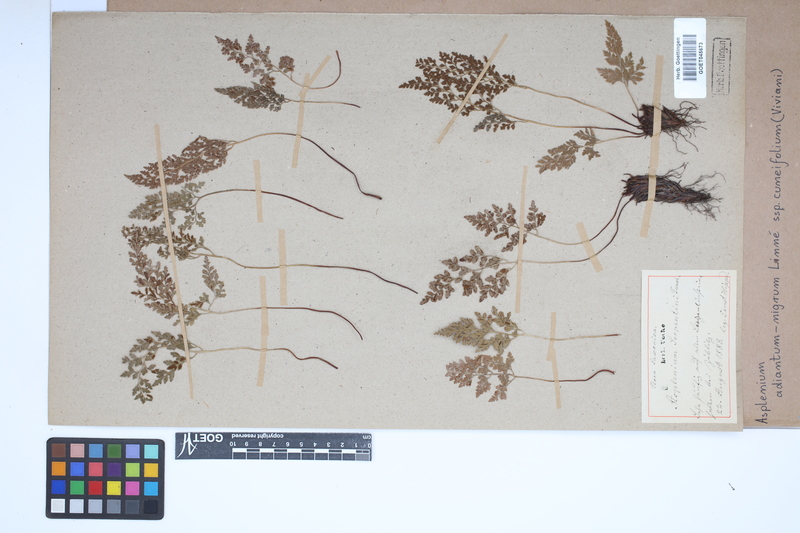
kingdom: Plantae
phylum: Tracheophyta
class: Polypodiopsida
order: Polypodiales
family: Aspleniaceae
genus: Asplenium
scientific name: Asplenium cuneifolium
